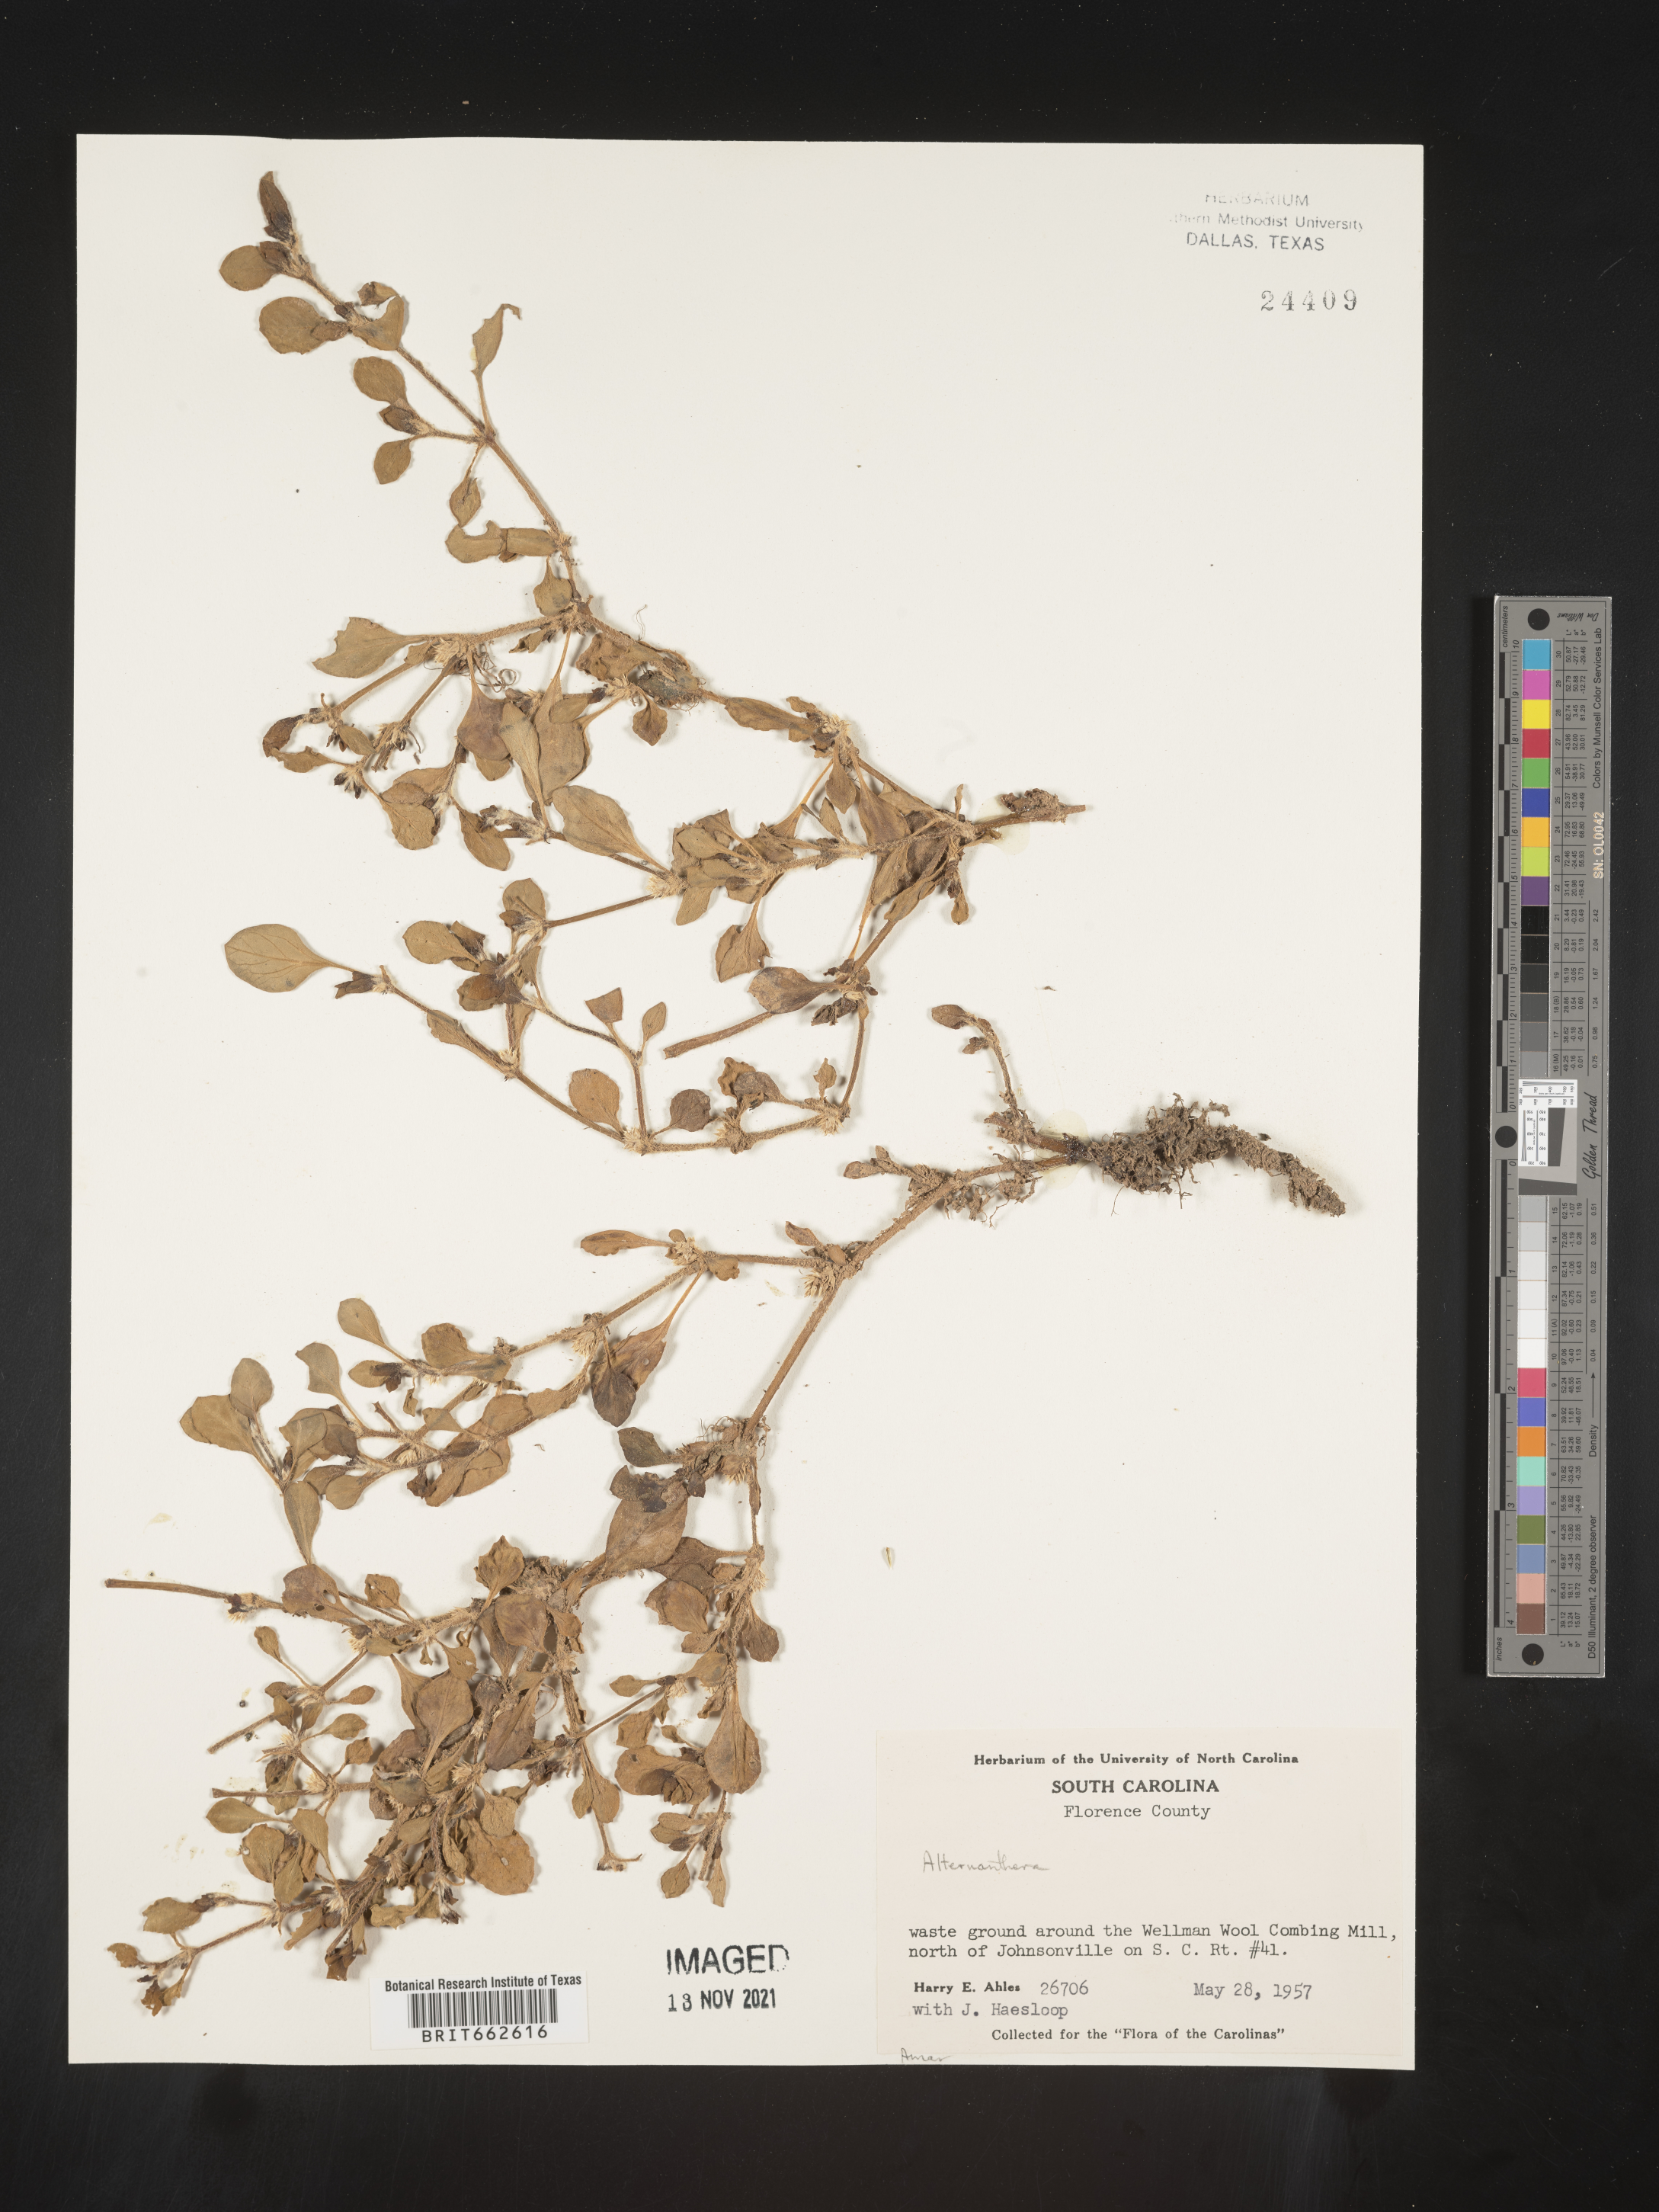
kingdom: Plantae
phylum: Tracheophyta
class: Magnoliopsida
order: Caryophyllales
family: Amaranthaceae
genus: Alternanthera
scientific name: Alternanthera
